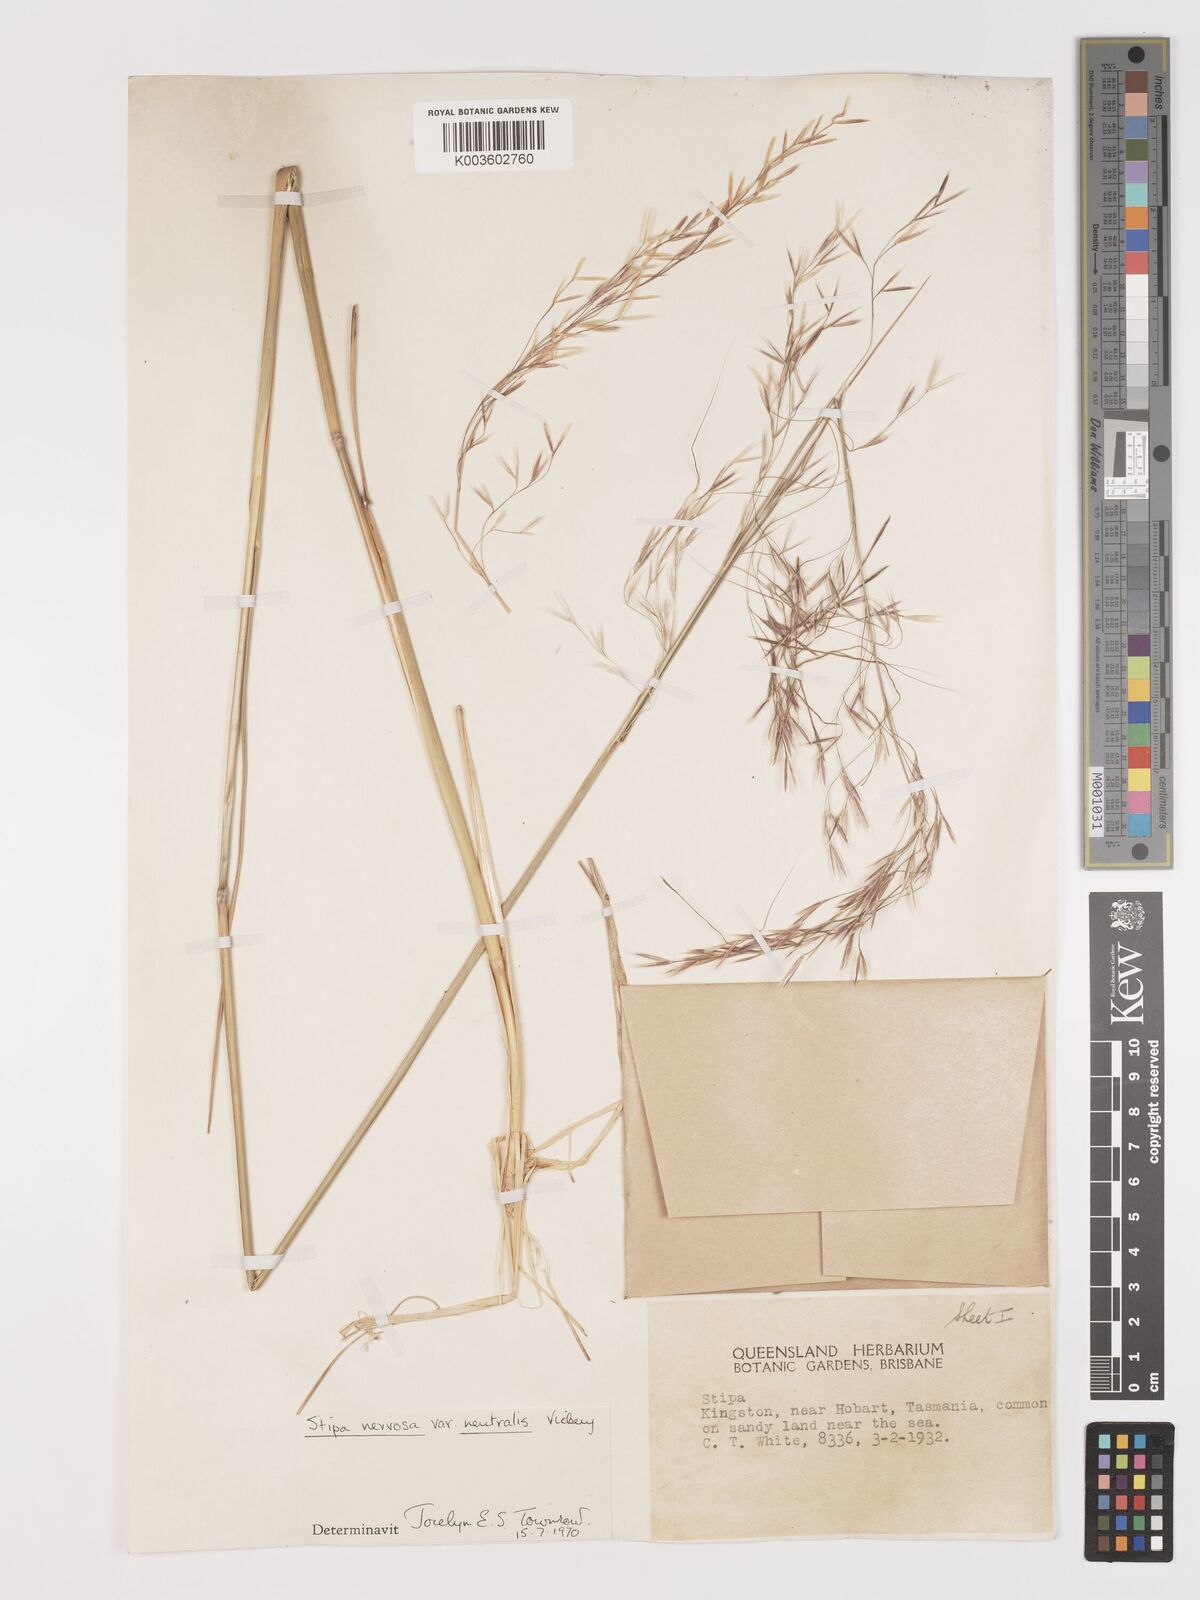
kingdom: Plantae
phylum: Tracheophyta
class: Liliopsida
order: Poales
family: Poaceae
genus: Austrostipa
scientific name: Austrostipa rudis
